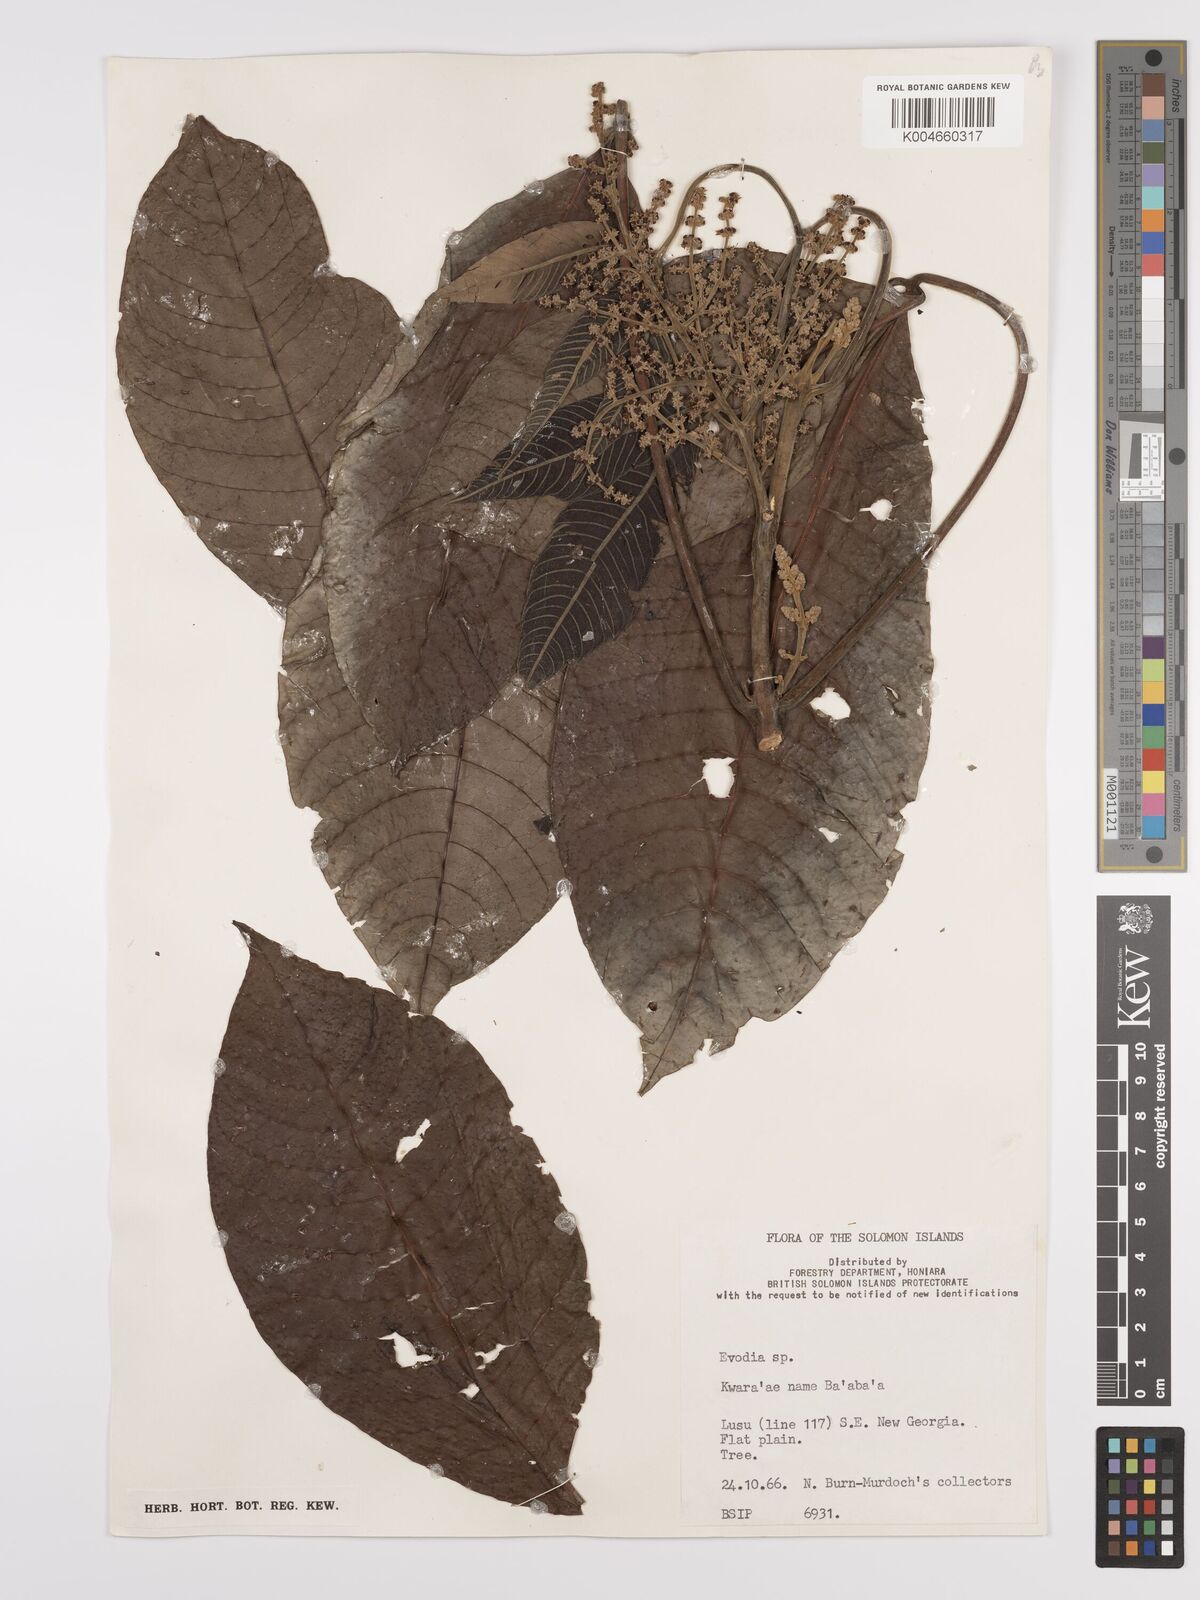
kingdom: Plantae
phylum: Tracheophyta
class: Magnoliopsida
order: Sapindales
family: Rutaceae
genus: Euodia
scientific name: Euodia
